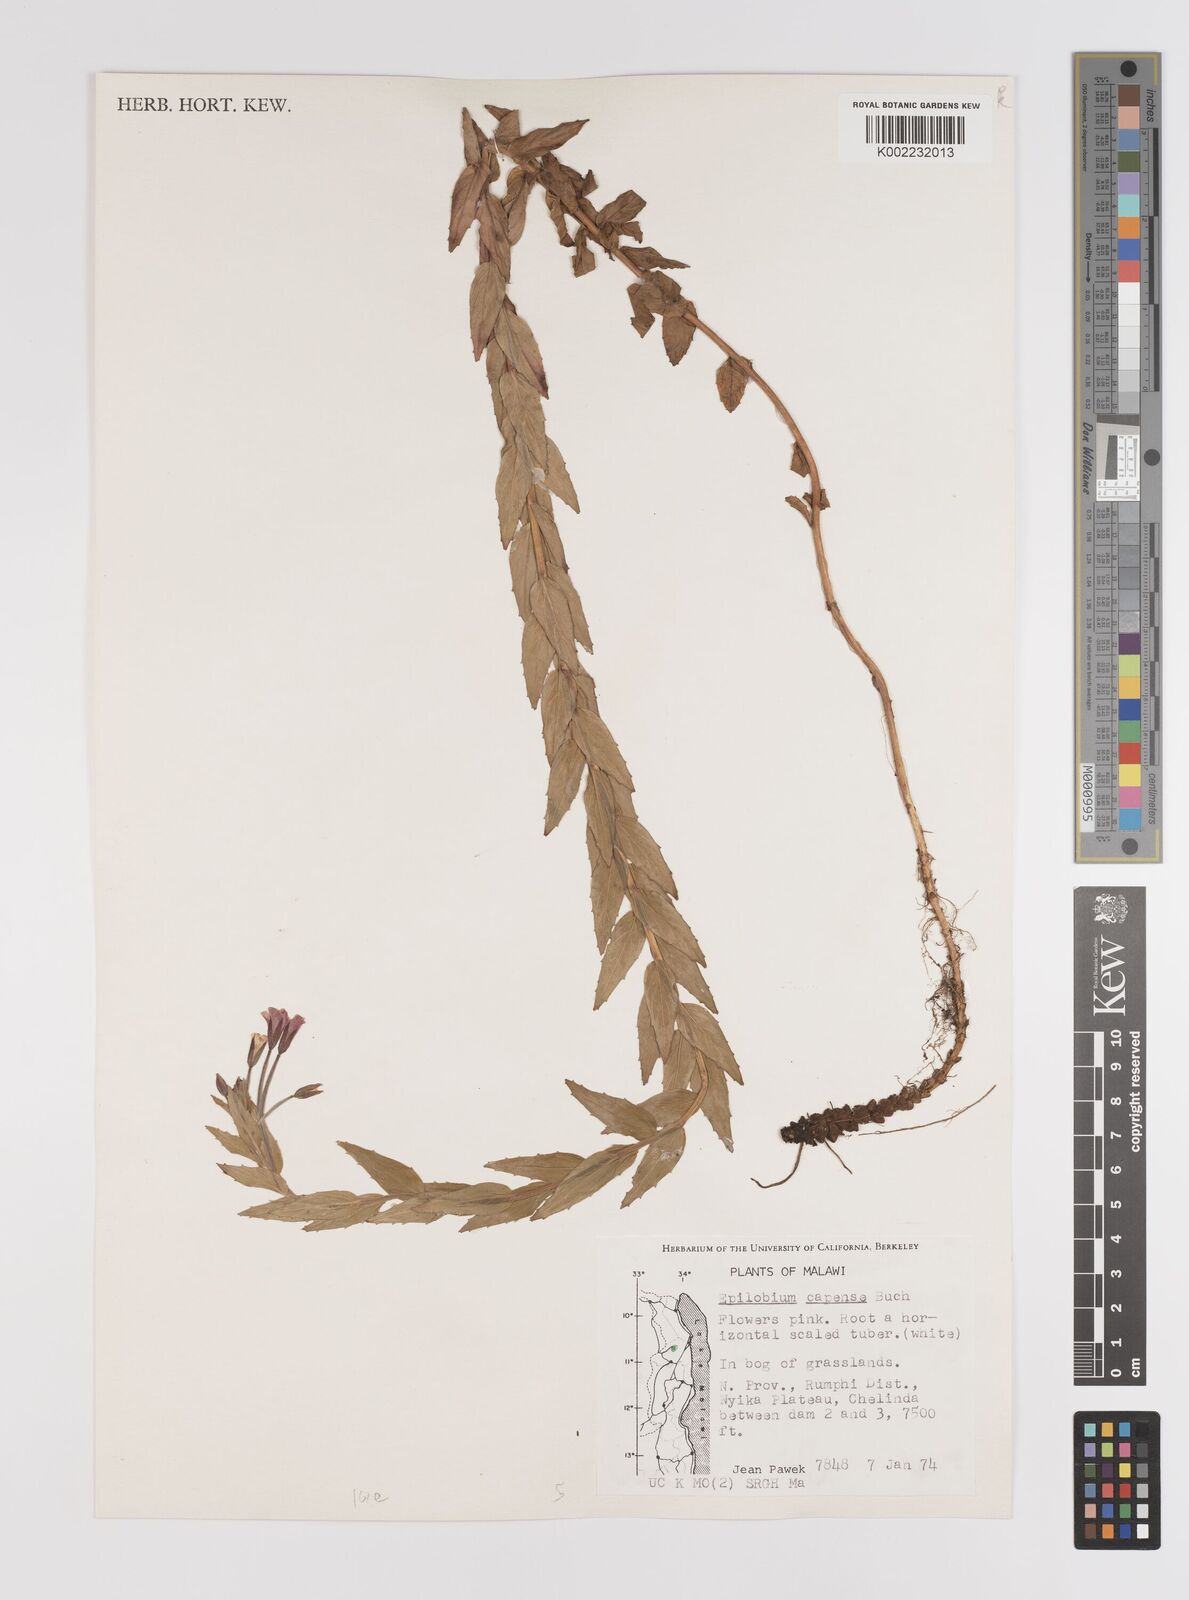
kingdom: Plantae
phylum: Tracheophyta
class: Magnoliopsida
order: Myrtales
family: Onagraceae
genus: Epilobium
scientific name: Epilobium capense
